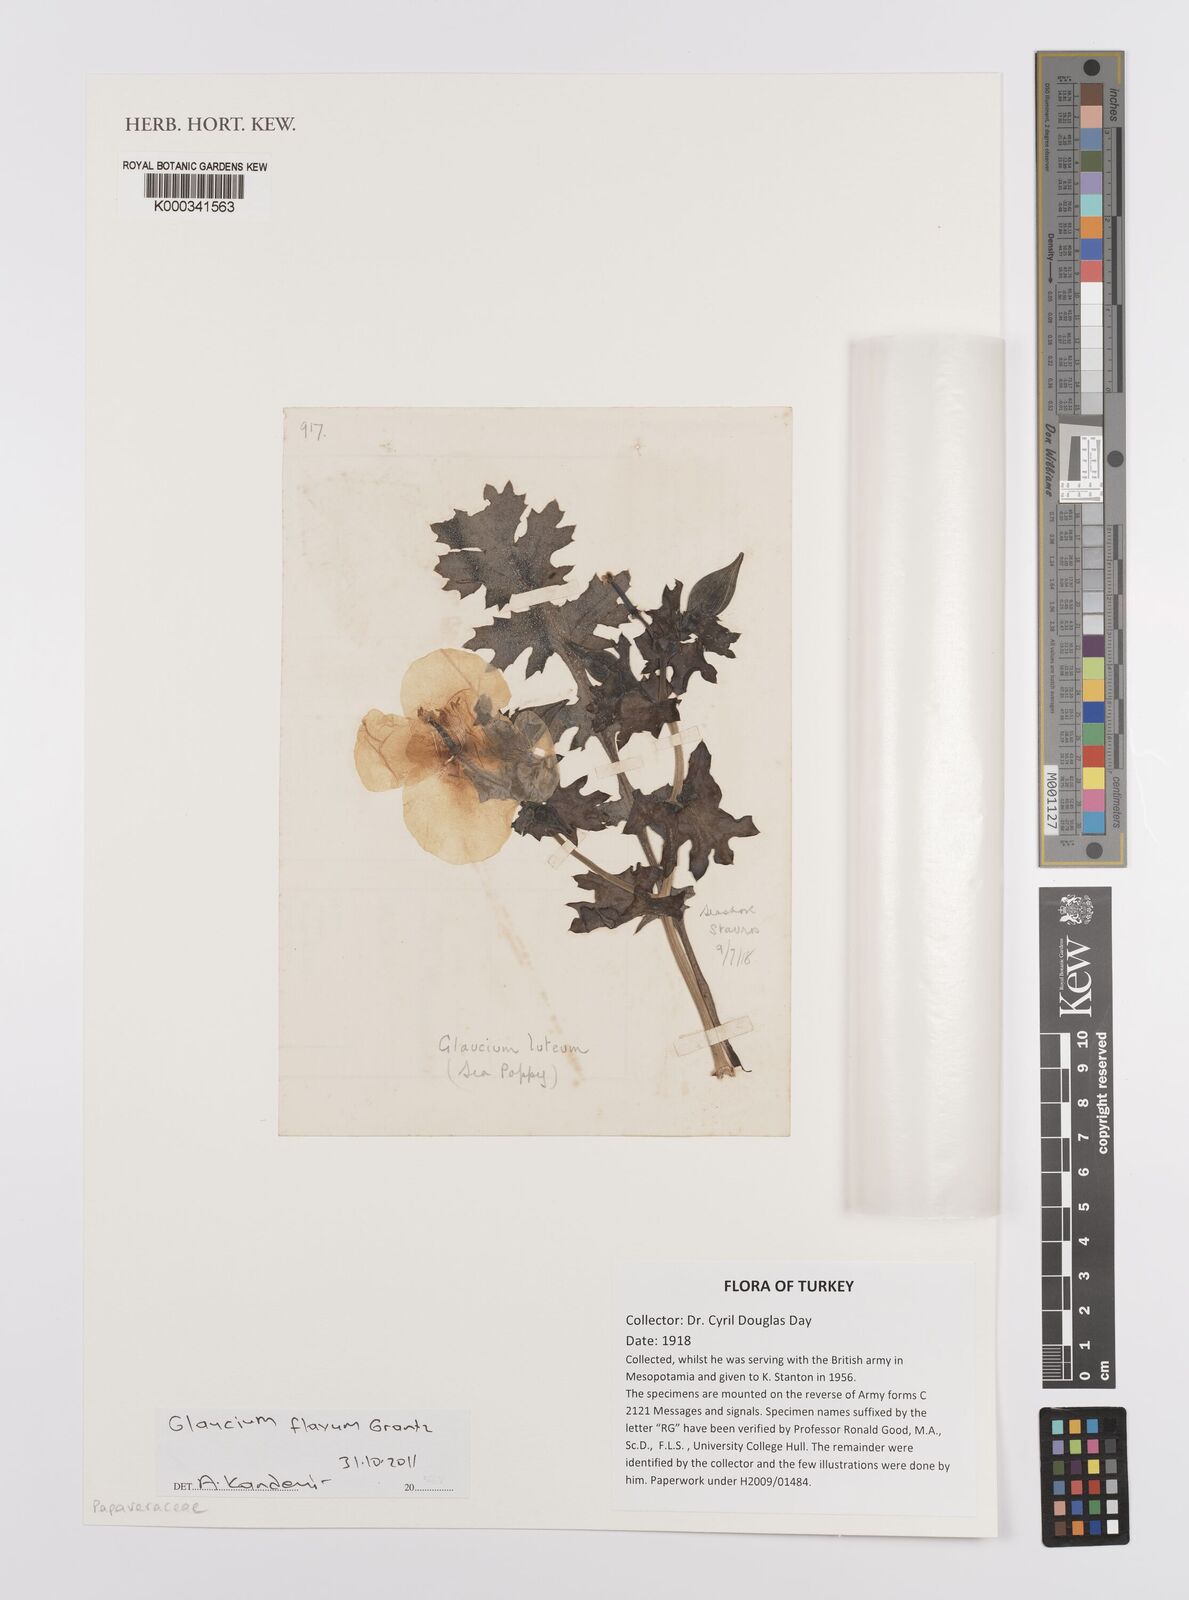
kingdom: Plantae
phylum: Tracheophyta
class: Magnoliopsida
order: Ranunculales
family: Papaveraceae
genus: Glaucium
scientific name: Glaucium flavum
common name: Yellow horned-poppy
